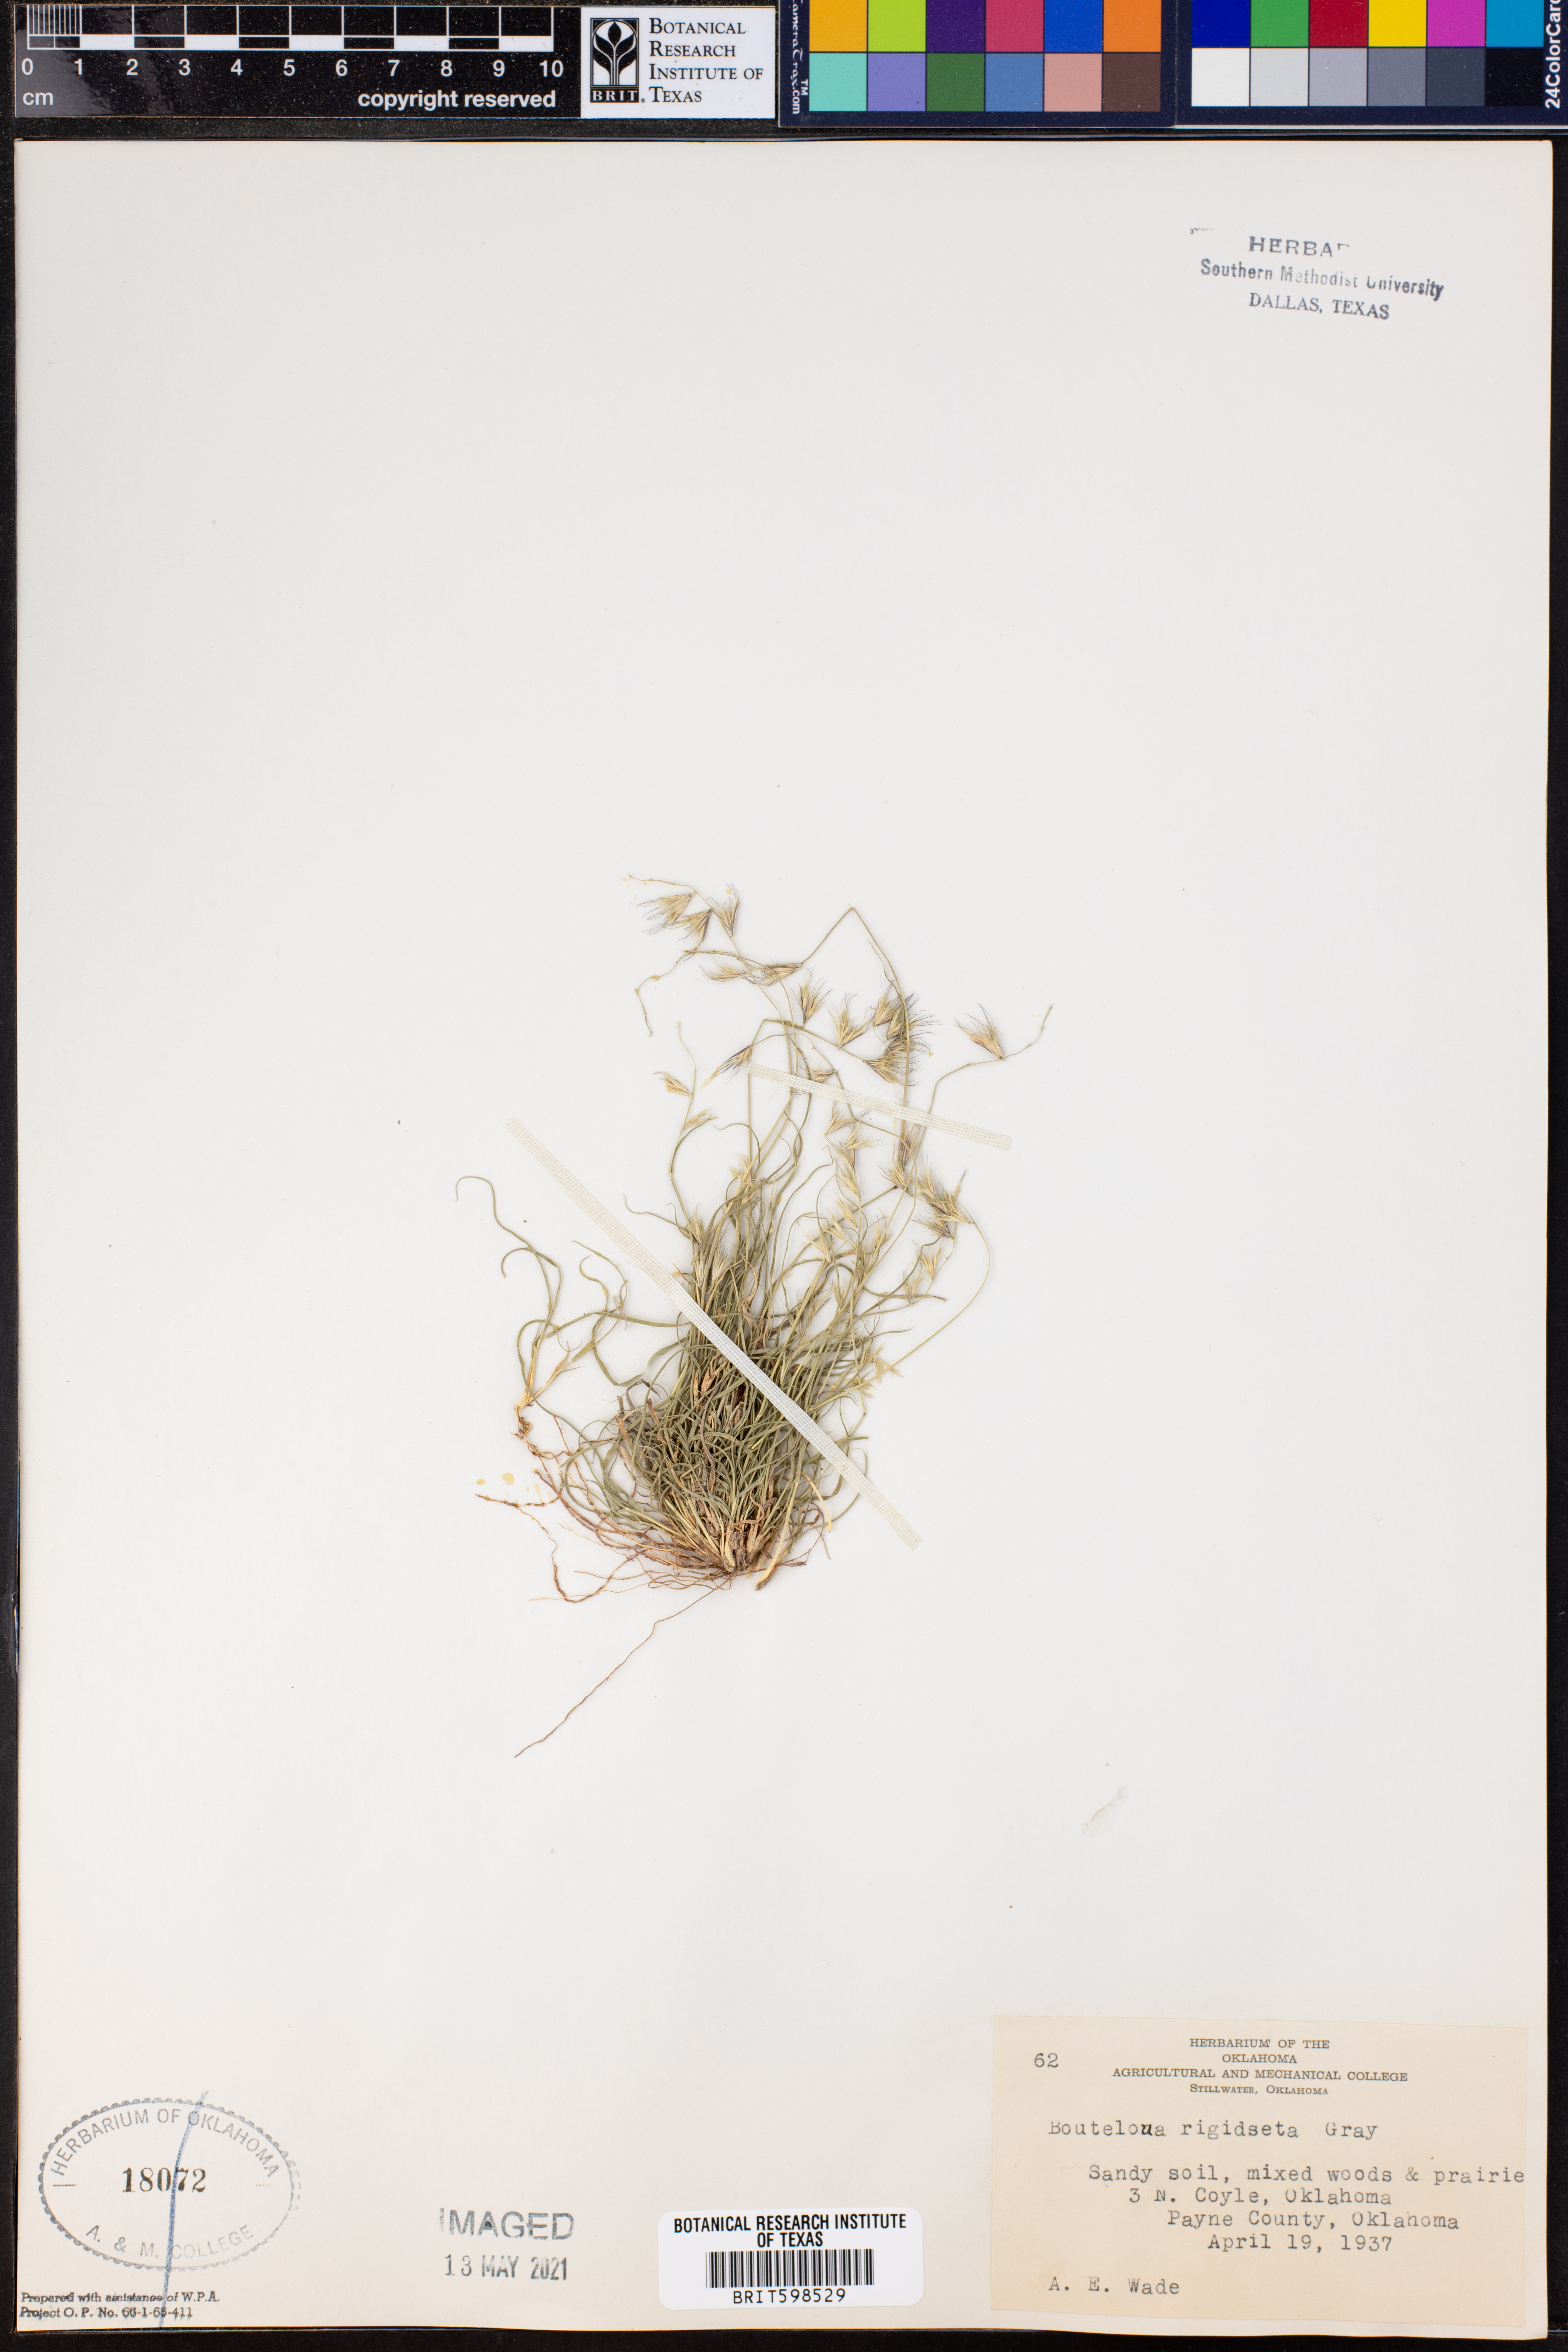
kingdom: Plantae
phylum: Tracheophyta
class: Liliopsida
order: Poales
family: Poaceae
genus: Bouteloua
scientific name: Bouteloua rigidiseta
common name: Texas grama
